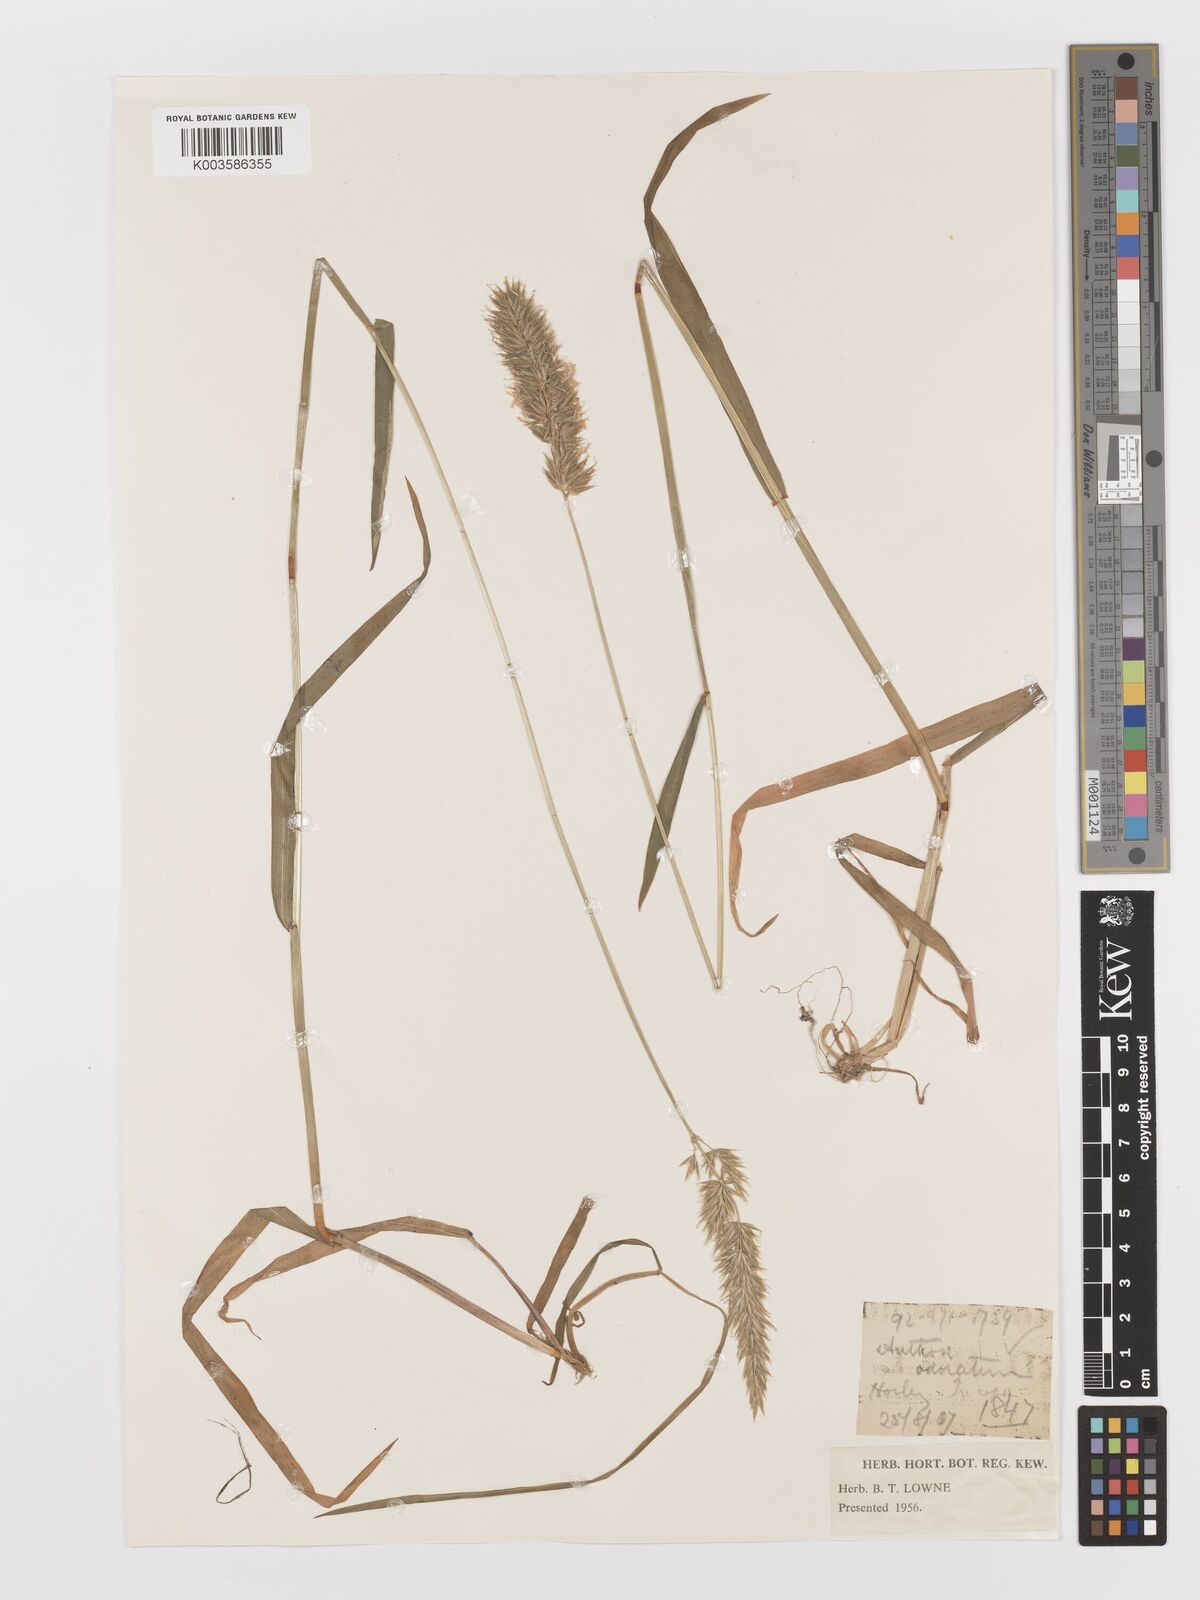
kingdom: Plantae
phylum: Tracheophyta
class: Liliopsida
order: Poales
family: Poaceae
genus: Anthoxanthum
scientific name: Anthoxanthum odoratum
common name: Sweet vernalgrass
